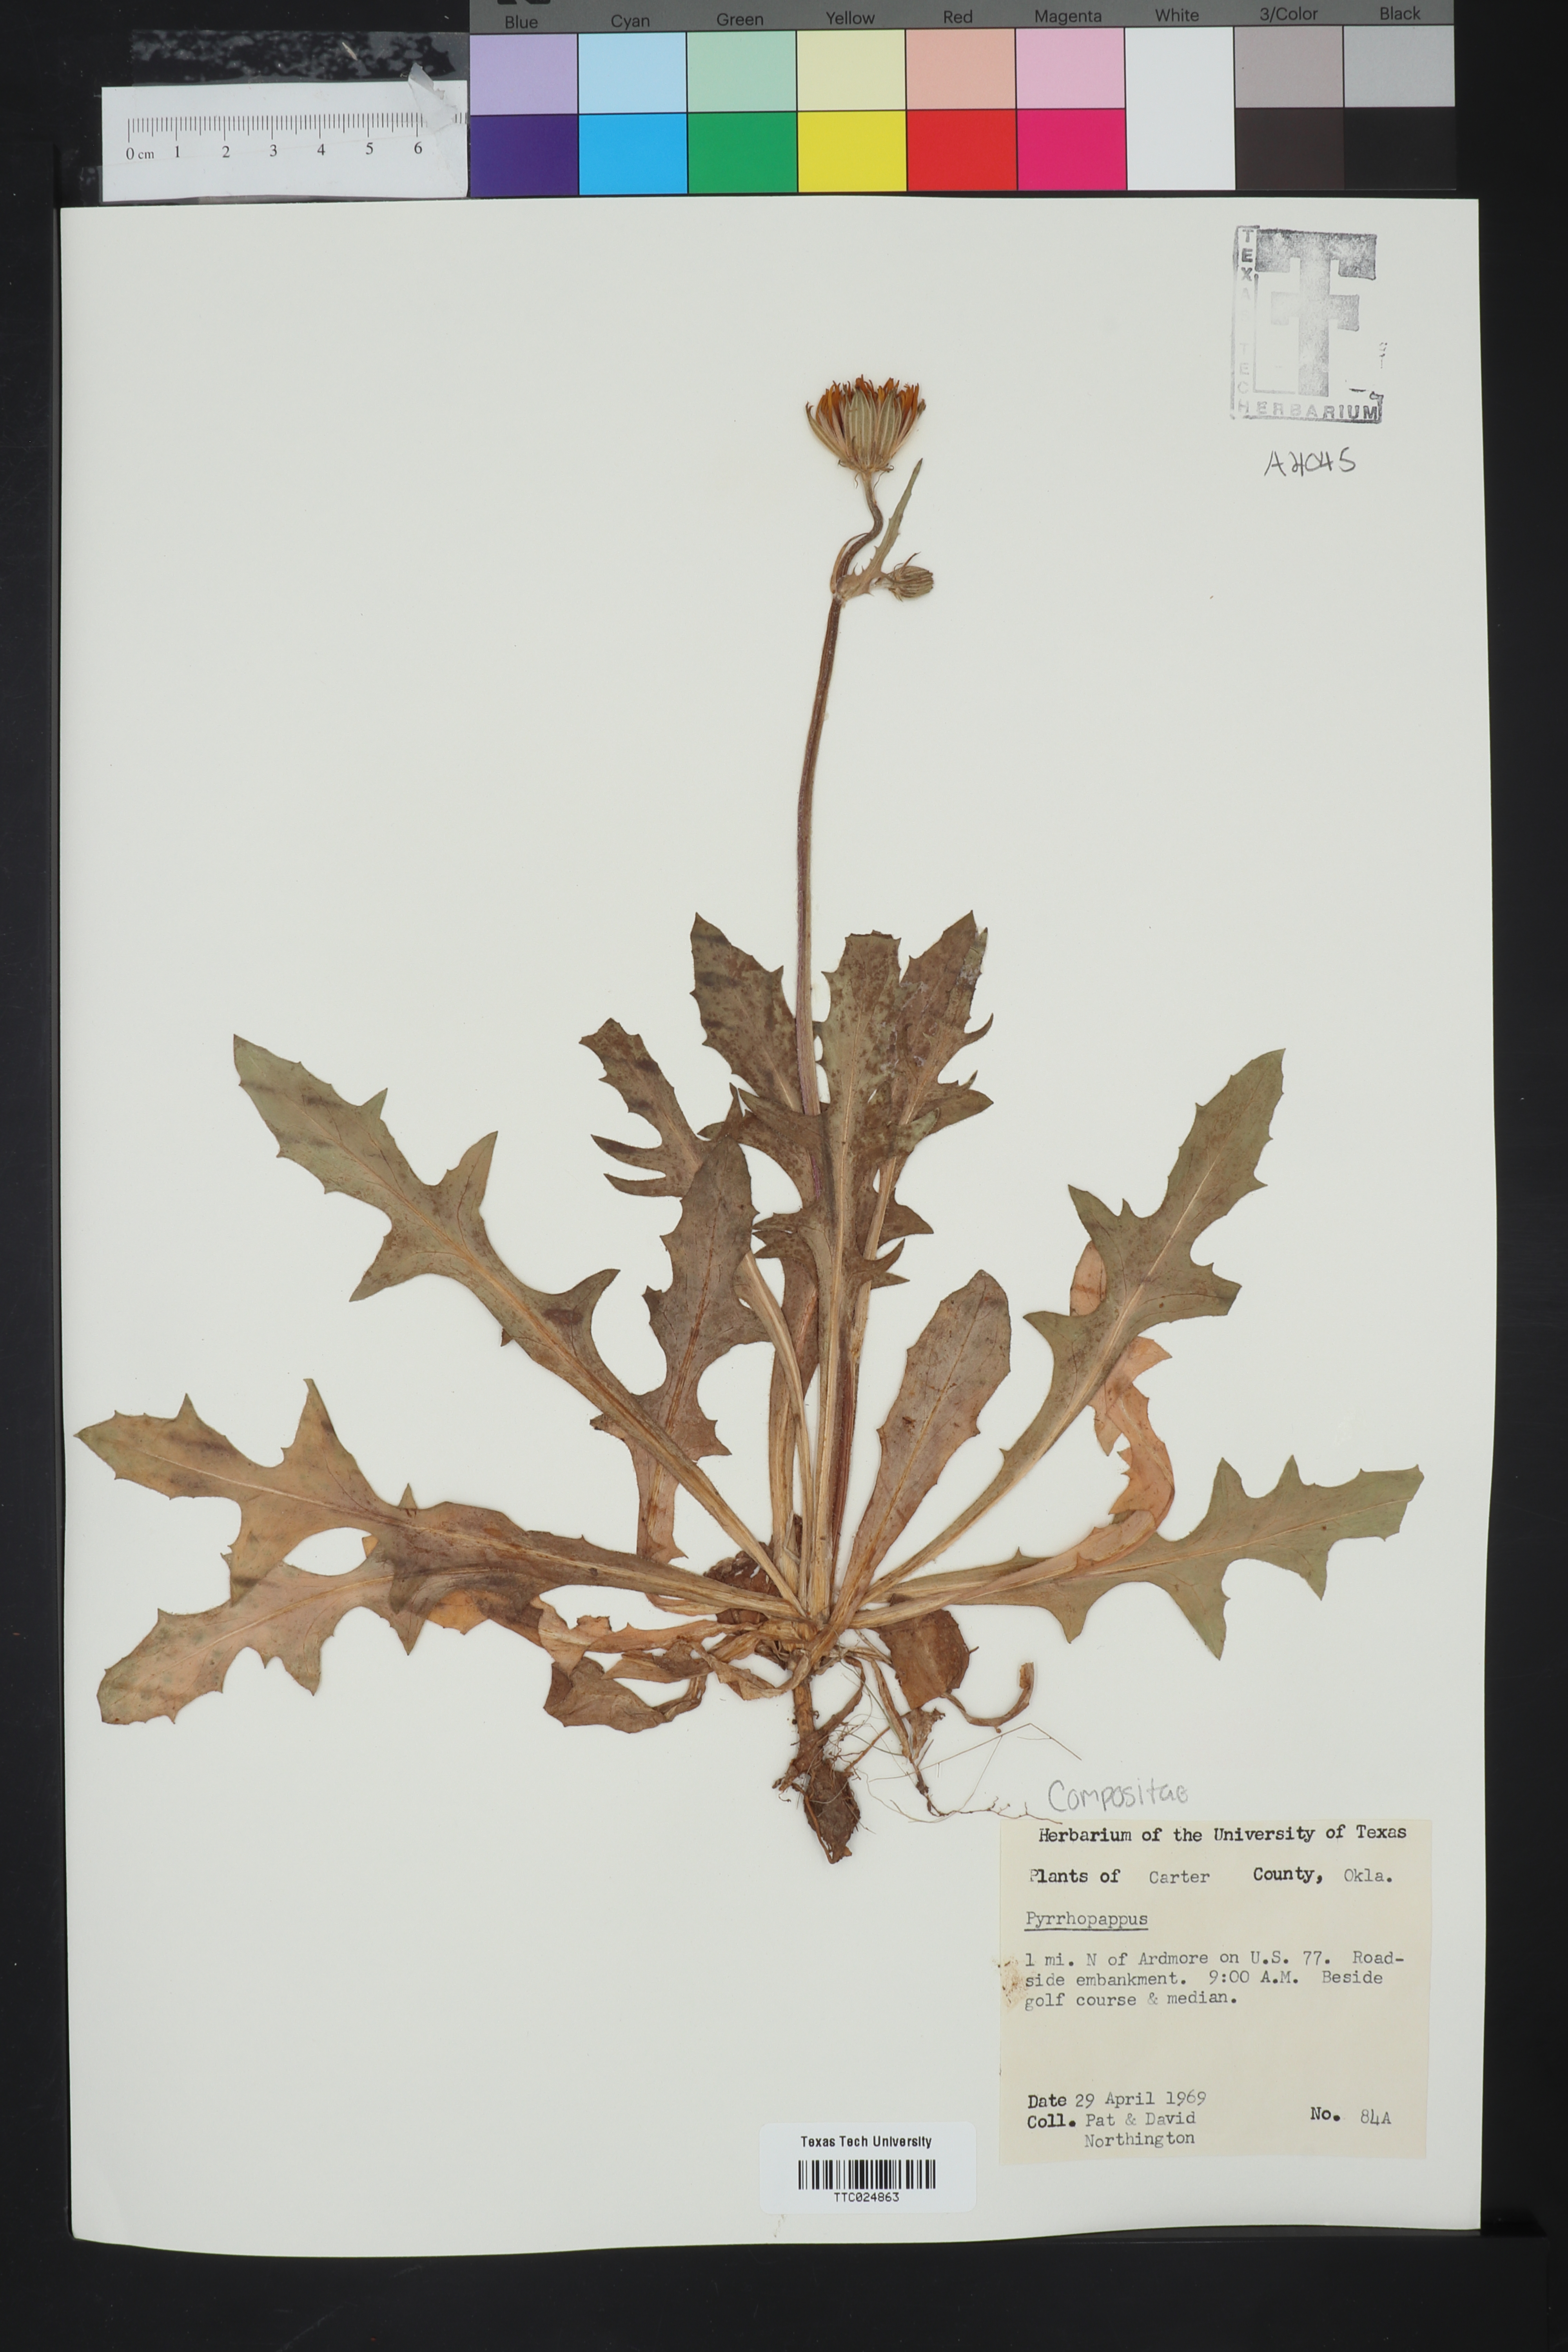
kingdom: Plantae
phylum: Tracheophyta
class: Magnoliopsida
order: Asterales
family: Asteraceae
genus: Pyrrhopappus
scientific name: Pyrrhopappus
